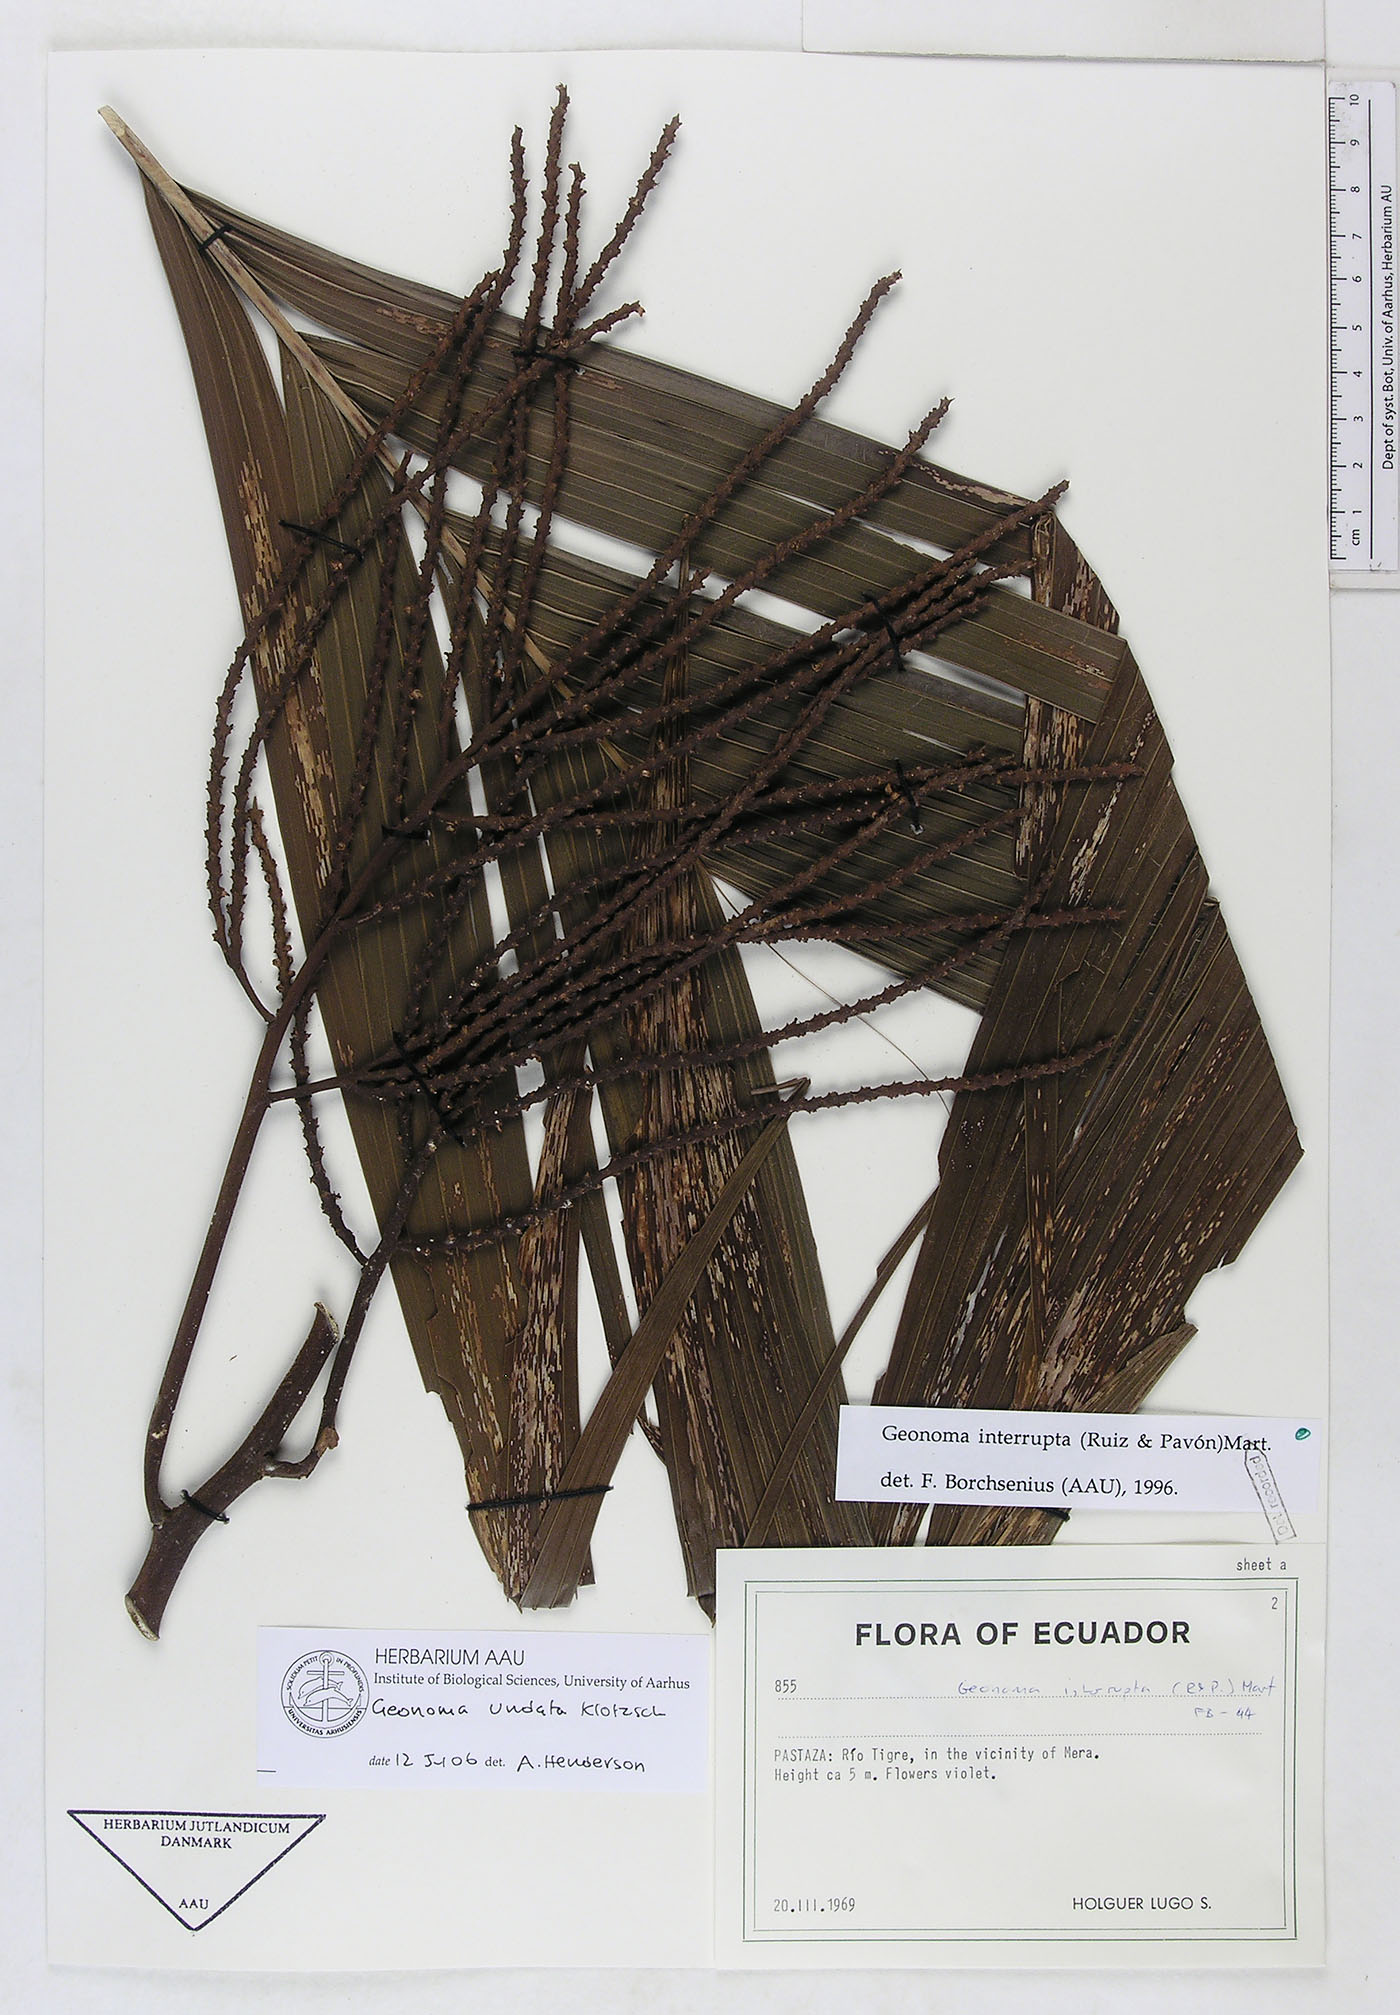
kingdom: Plantae
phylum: Tracheophyta
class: Liliopsida
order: Arecales
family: Arecaceae
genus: Geonoma
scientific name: Geonoma undata
